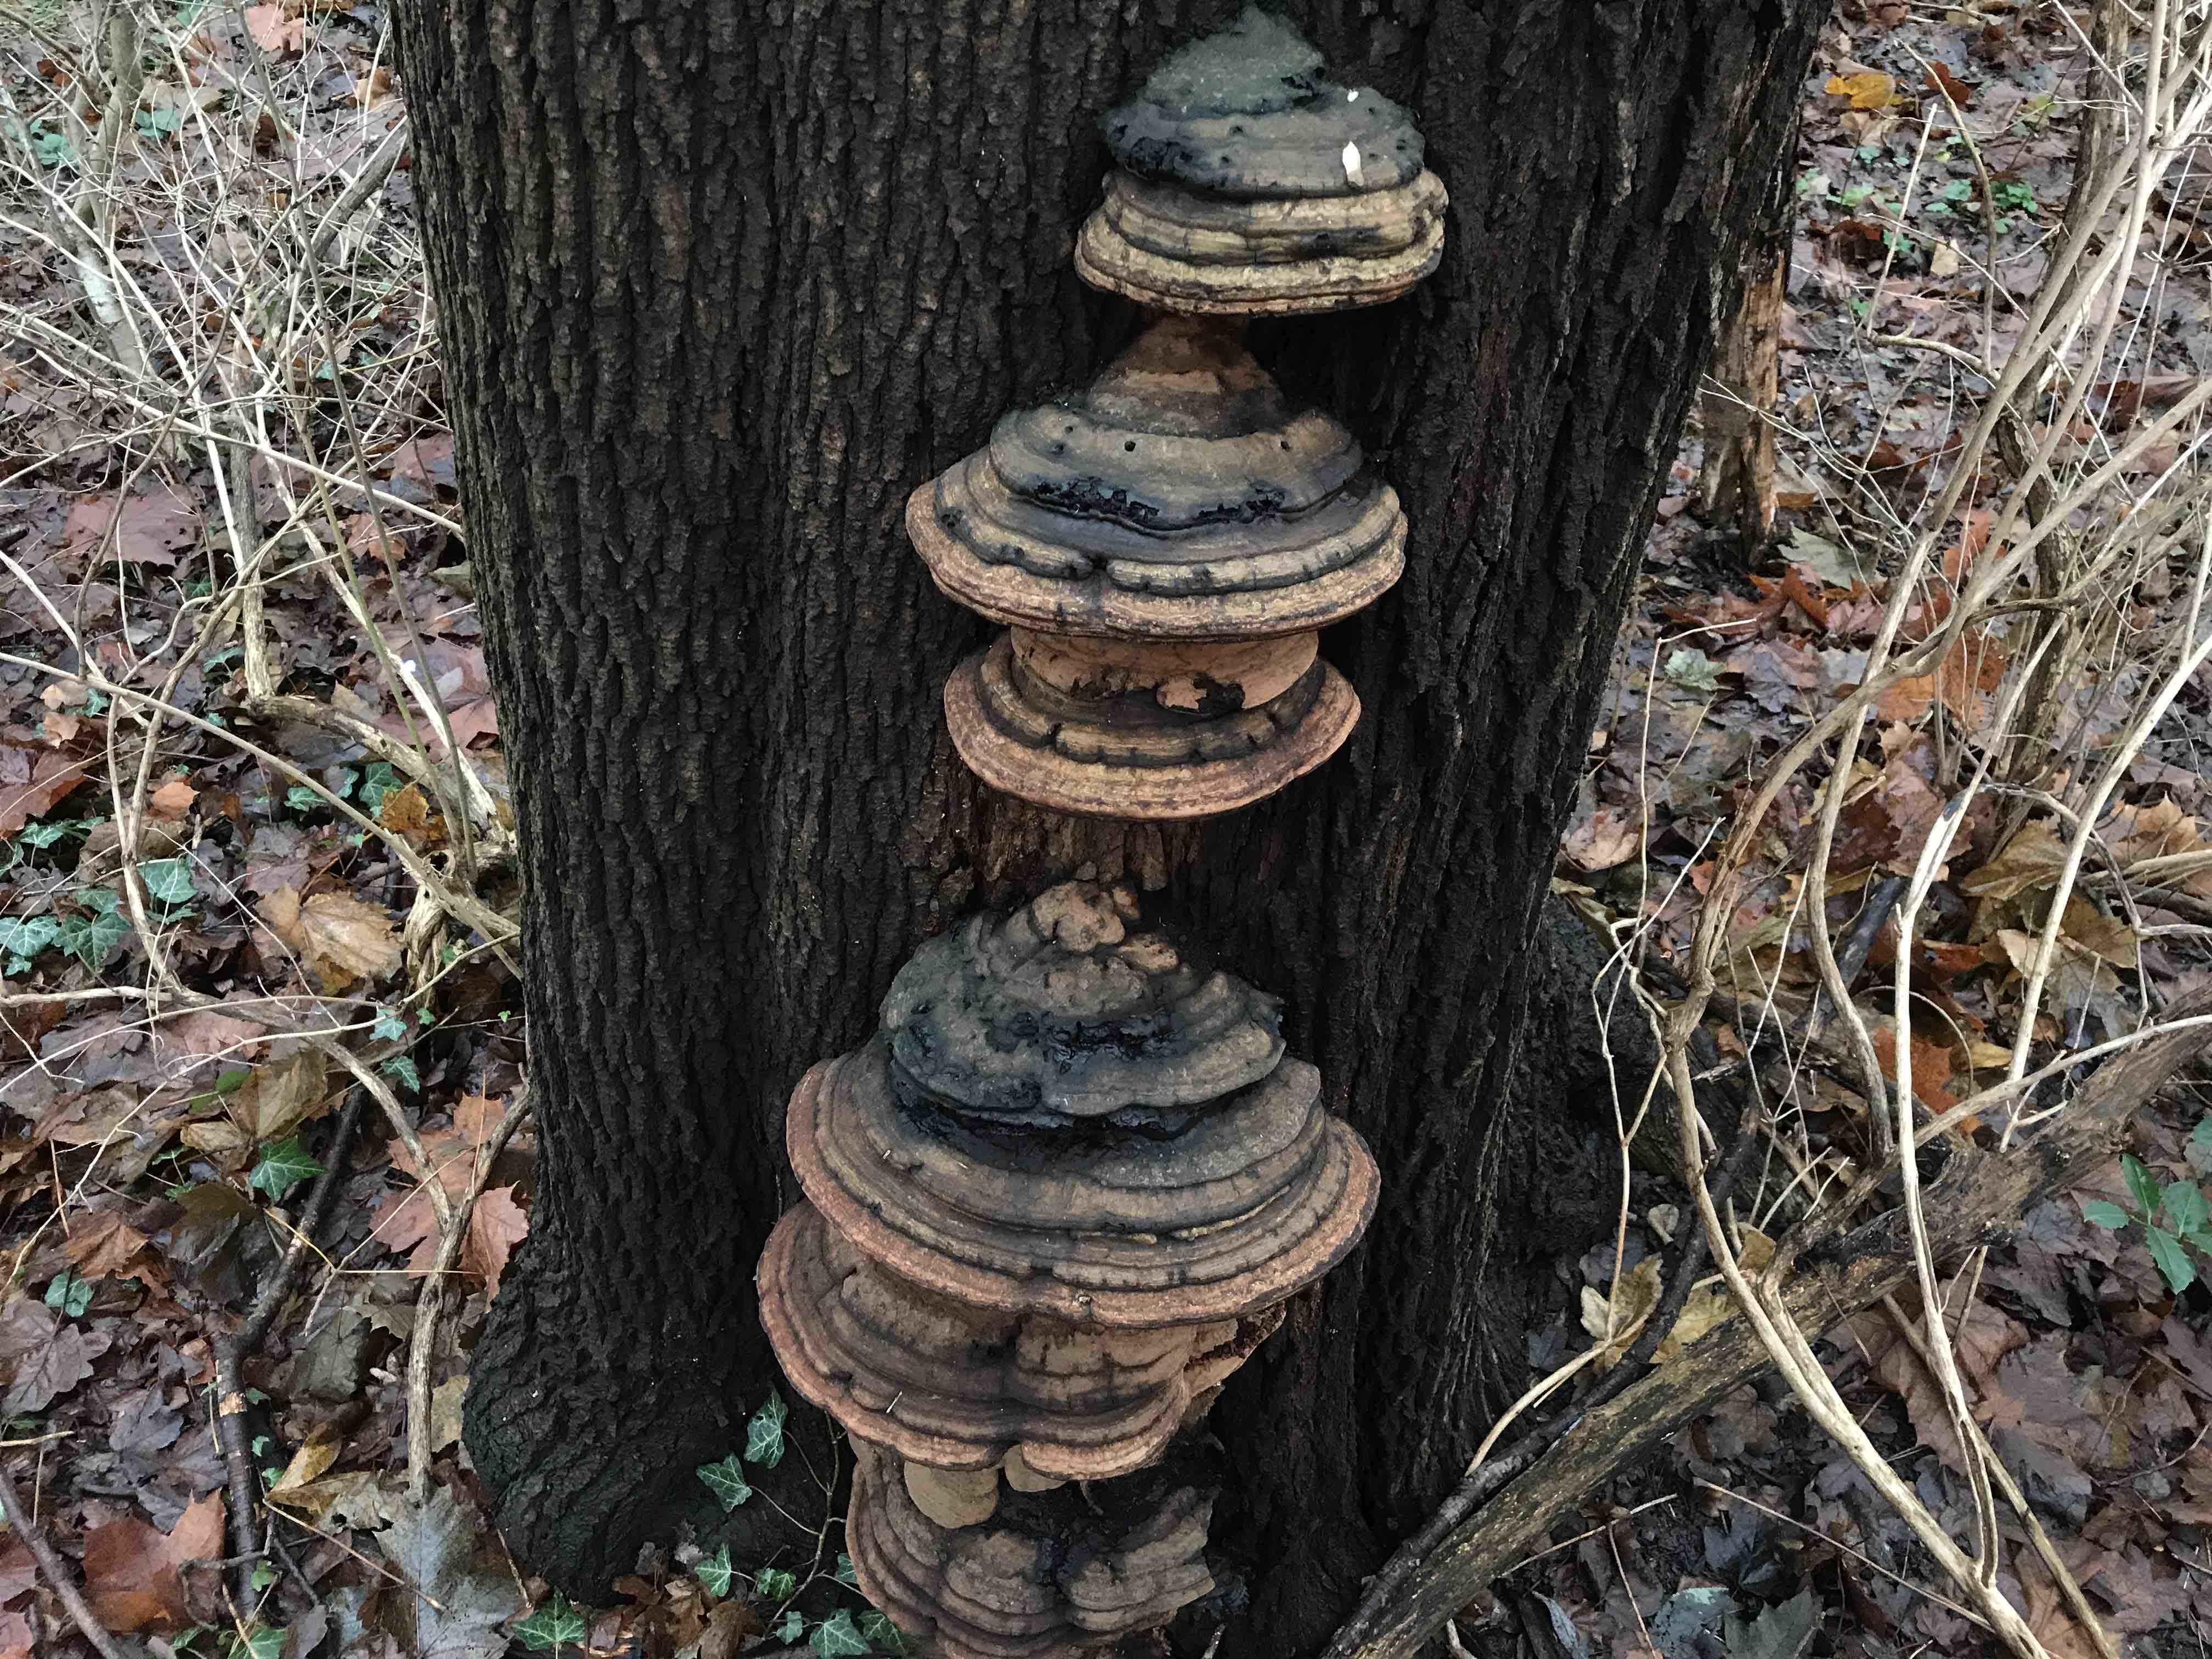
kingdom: Fungi
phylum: Basidiomycota
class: Agaricomycetes
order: Polyporales
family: Polyporaceae
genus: Ganoderma
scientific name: Ganoderma applanatum
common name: flad lakporesvamp
